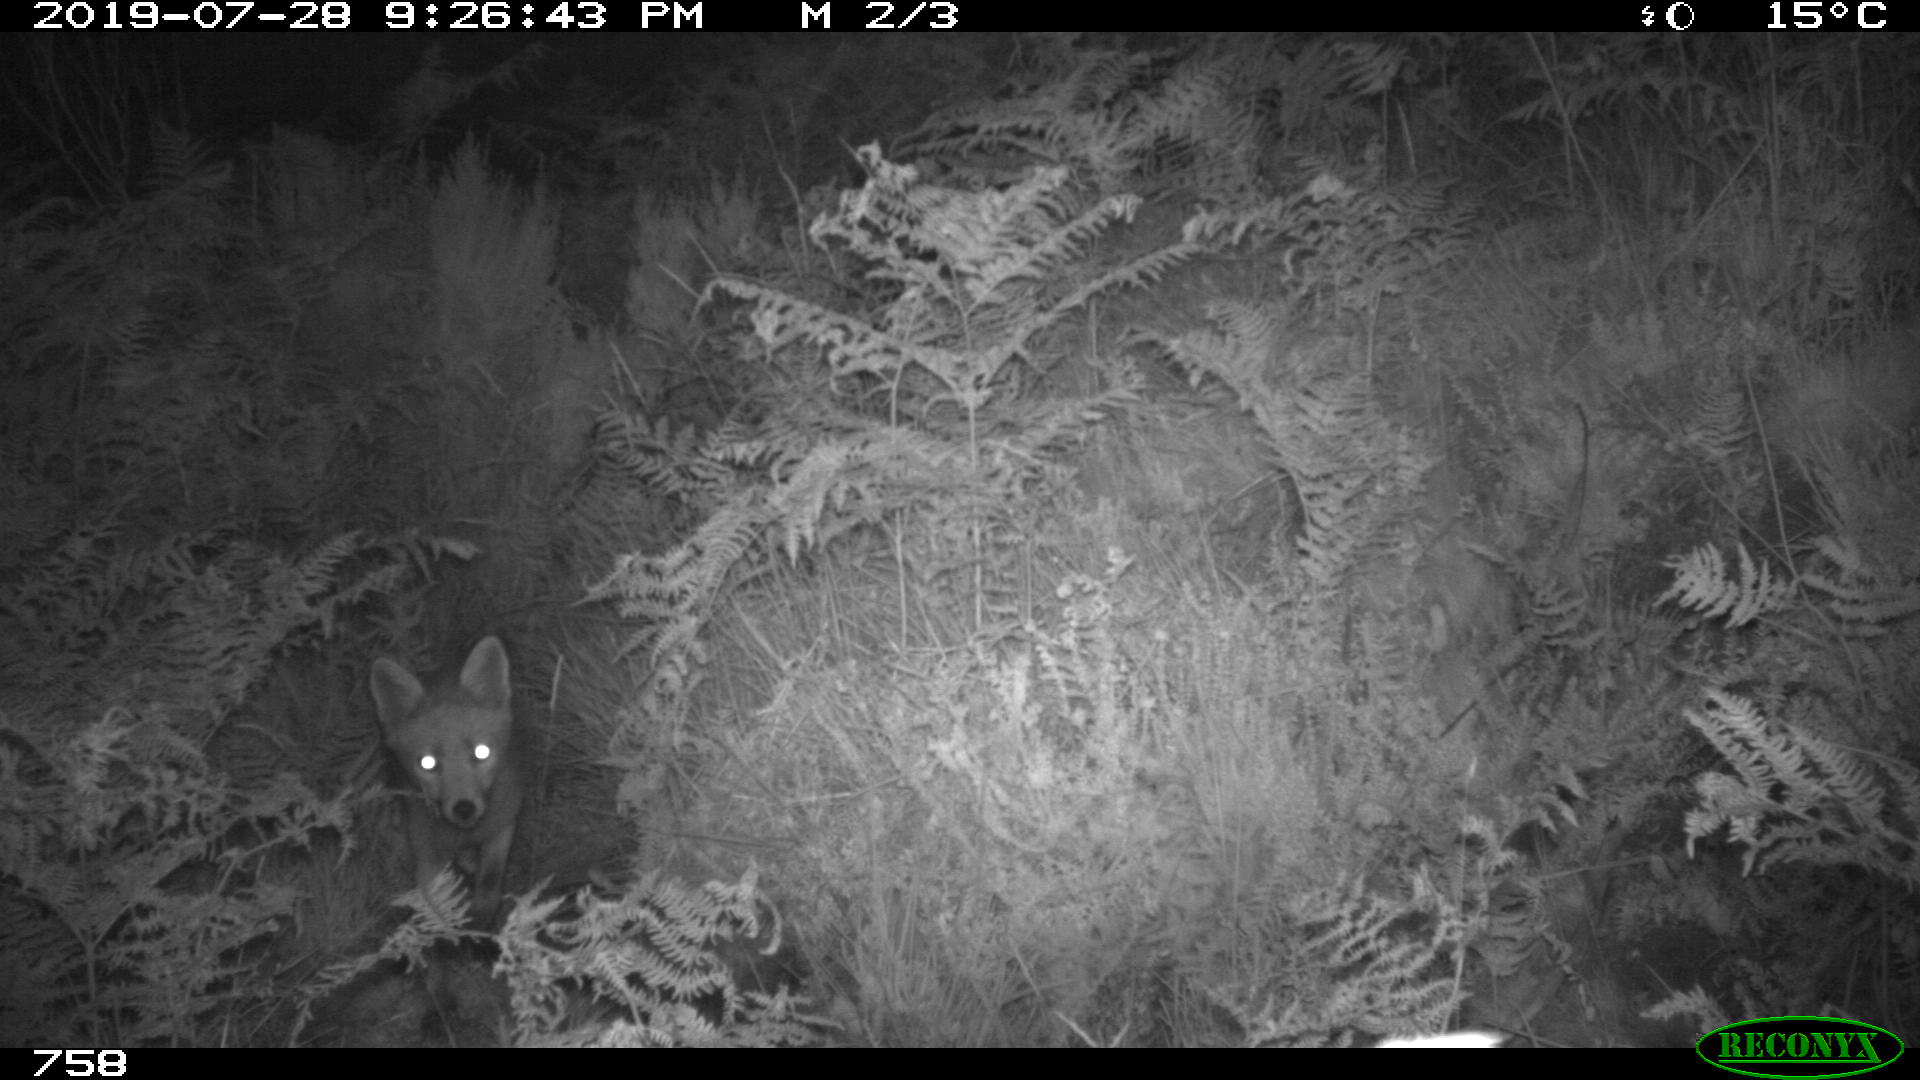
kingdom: Animalia
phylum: Chordata
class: Mammalia
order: Carnivora
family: Canidae
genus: Vulpes
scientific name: Vulpes vulpes
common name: Red fox
